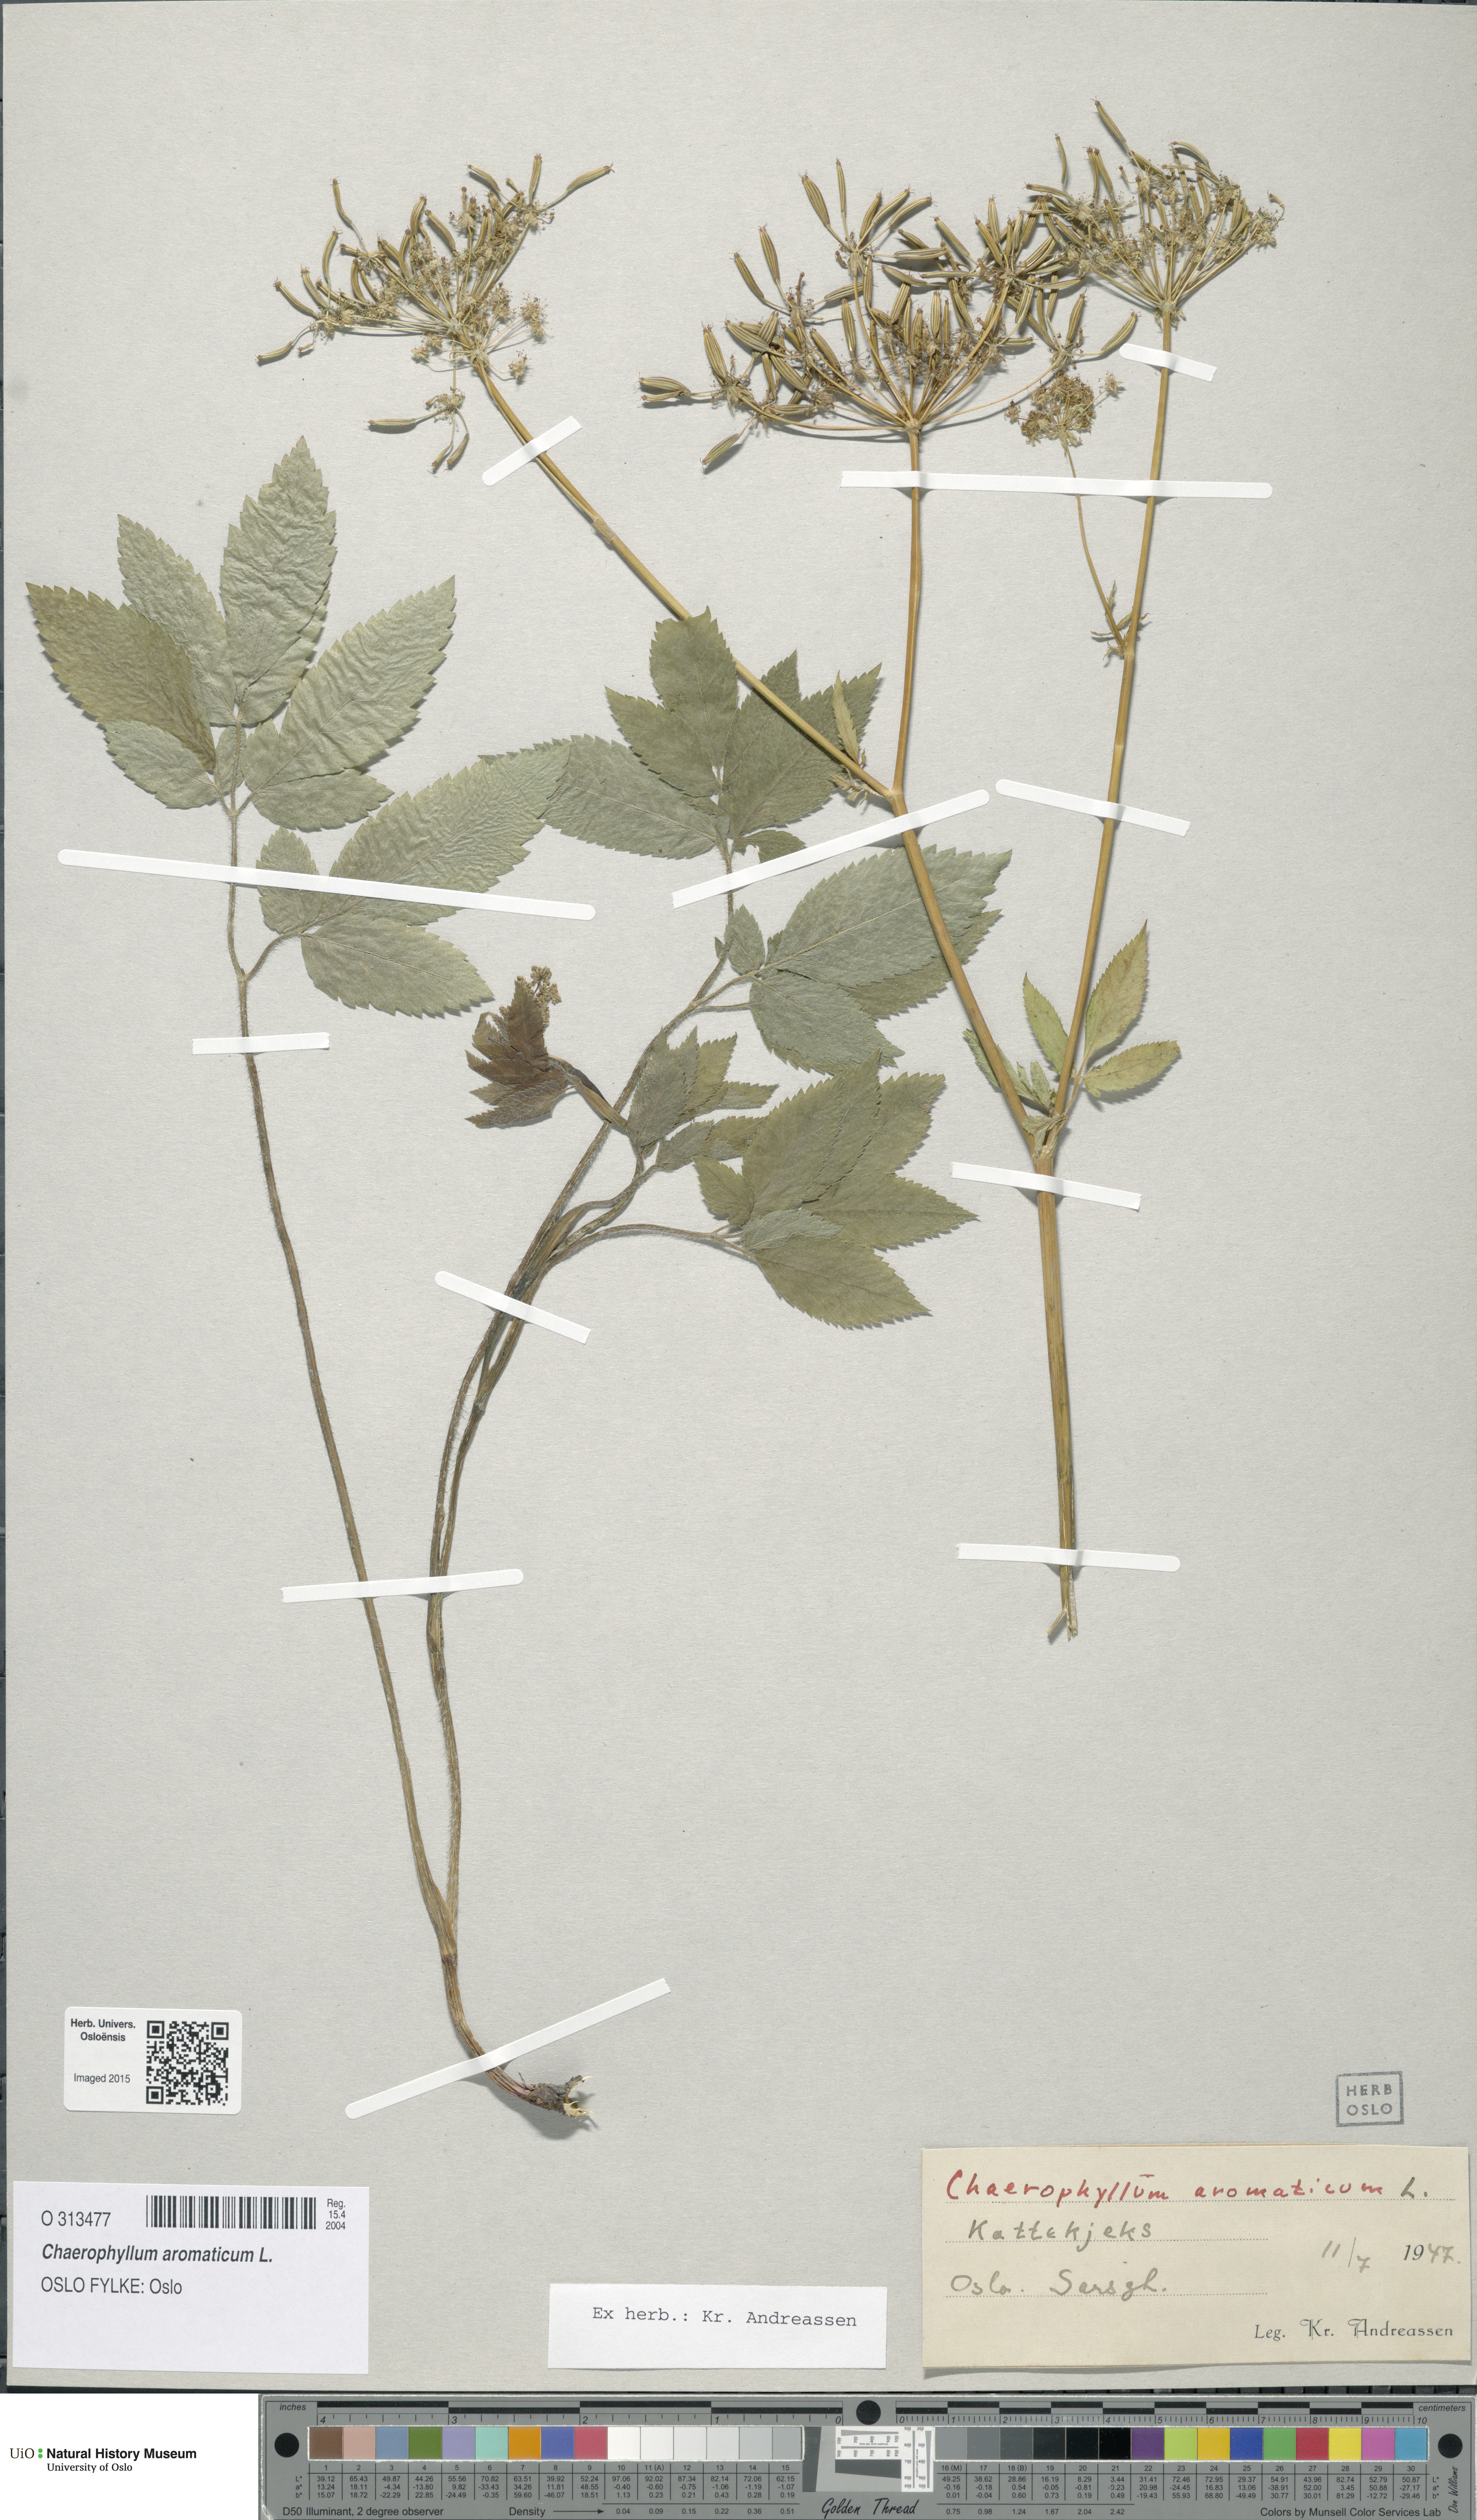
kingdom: Plantae
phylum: Tracheophyta
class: Magnoliopsida
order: Apiales
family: Apiaceae
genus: Chaerophyllum
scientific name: Chaerophyllum aromaticum
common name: Broadleaf chervil
